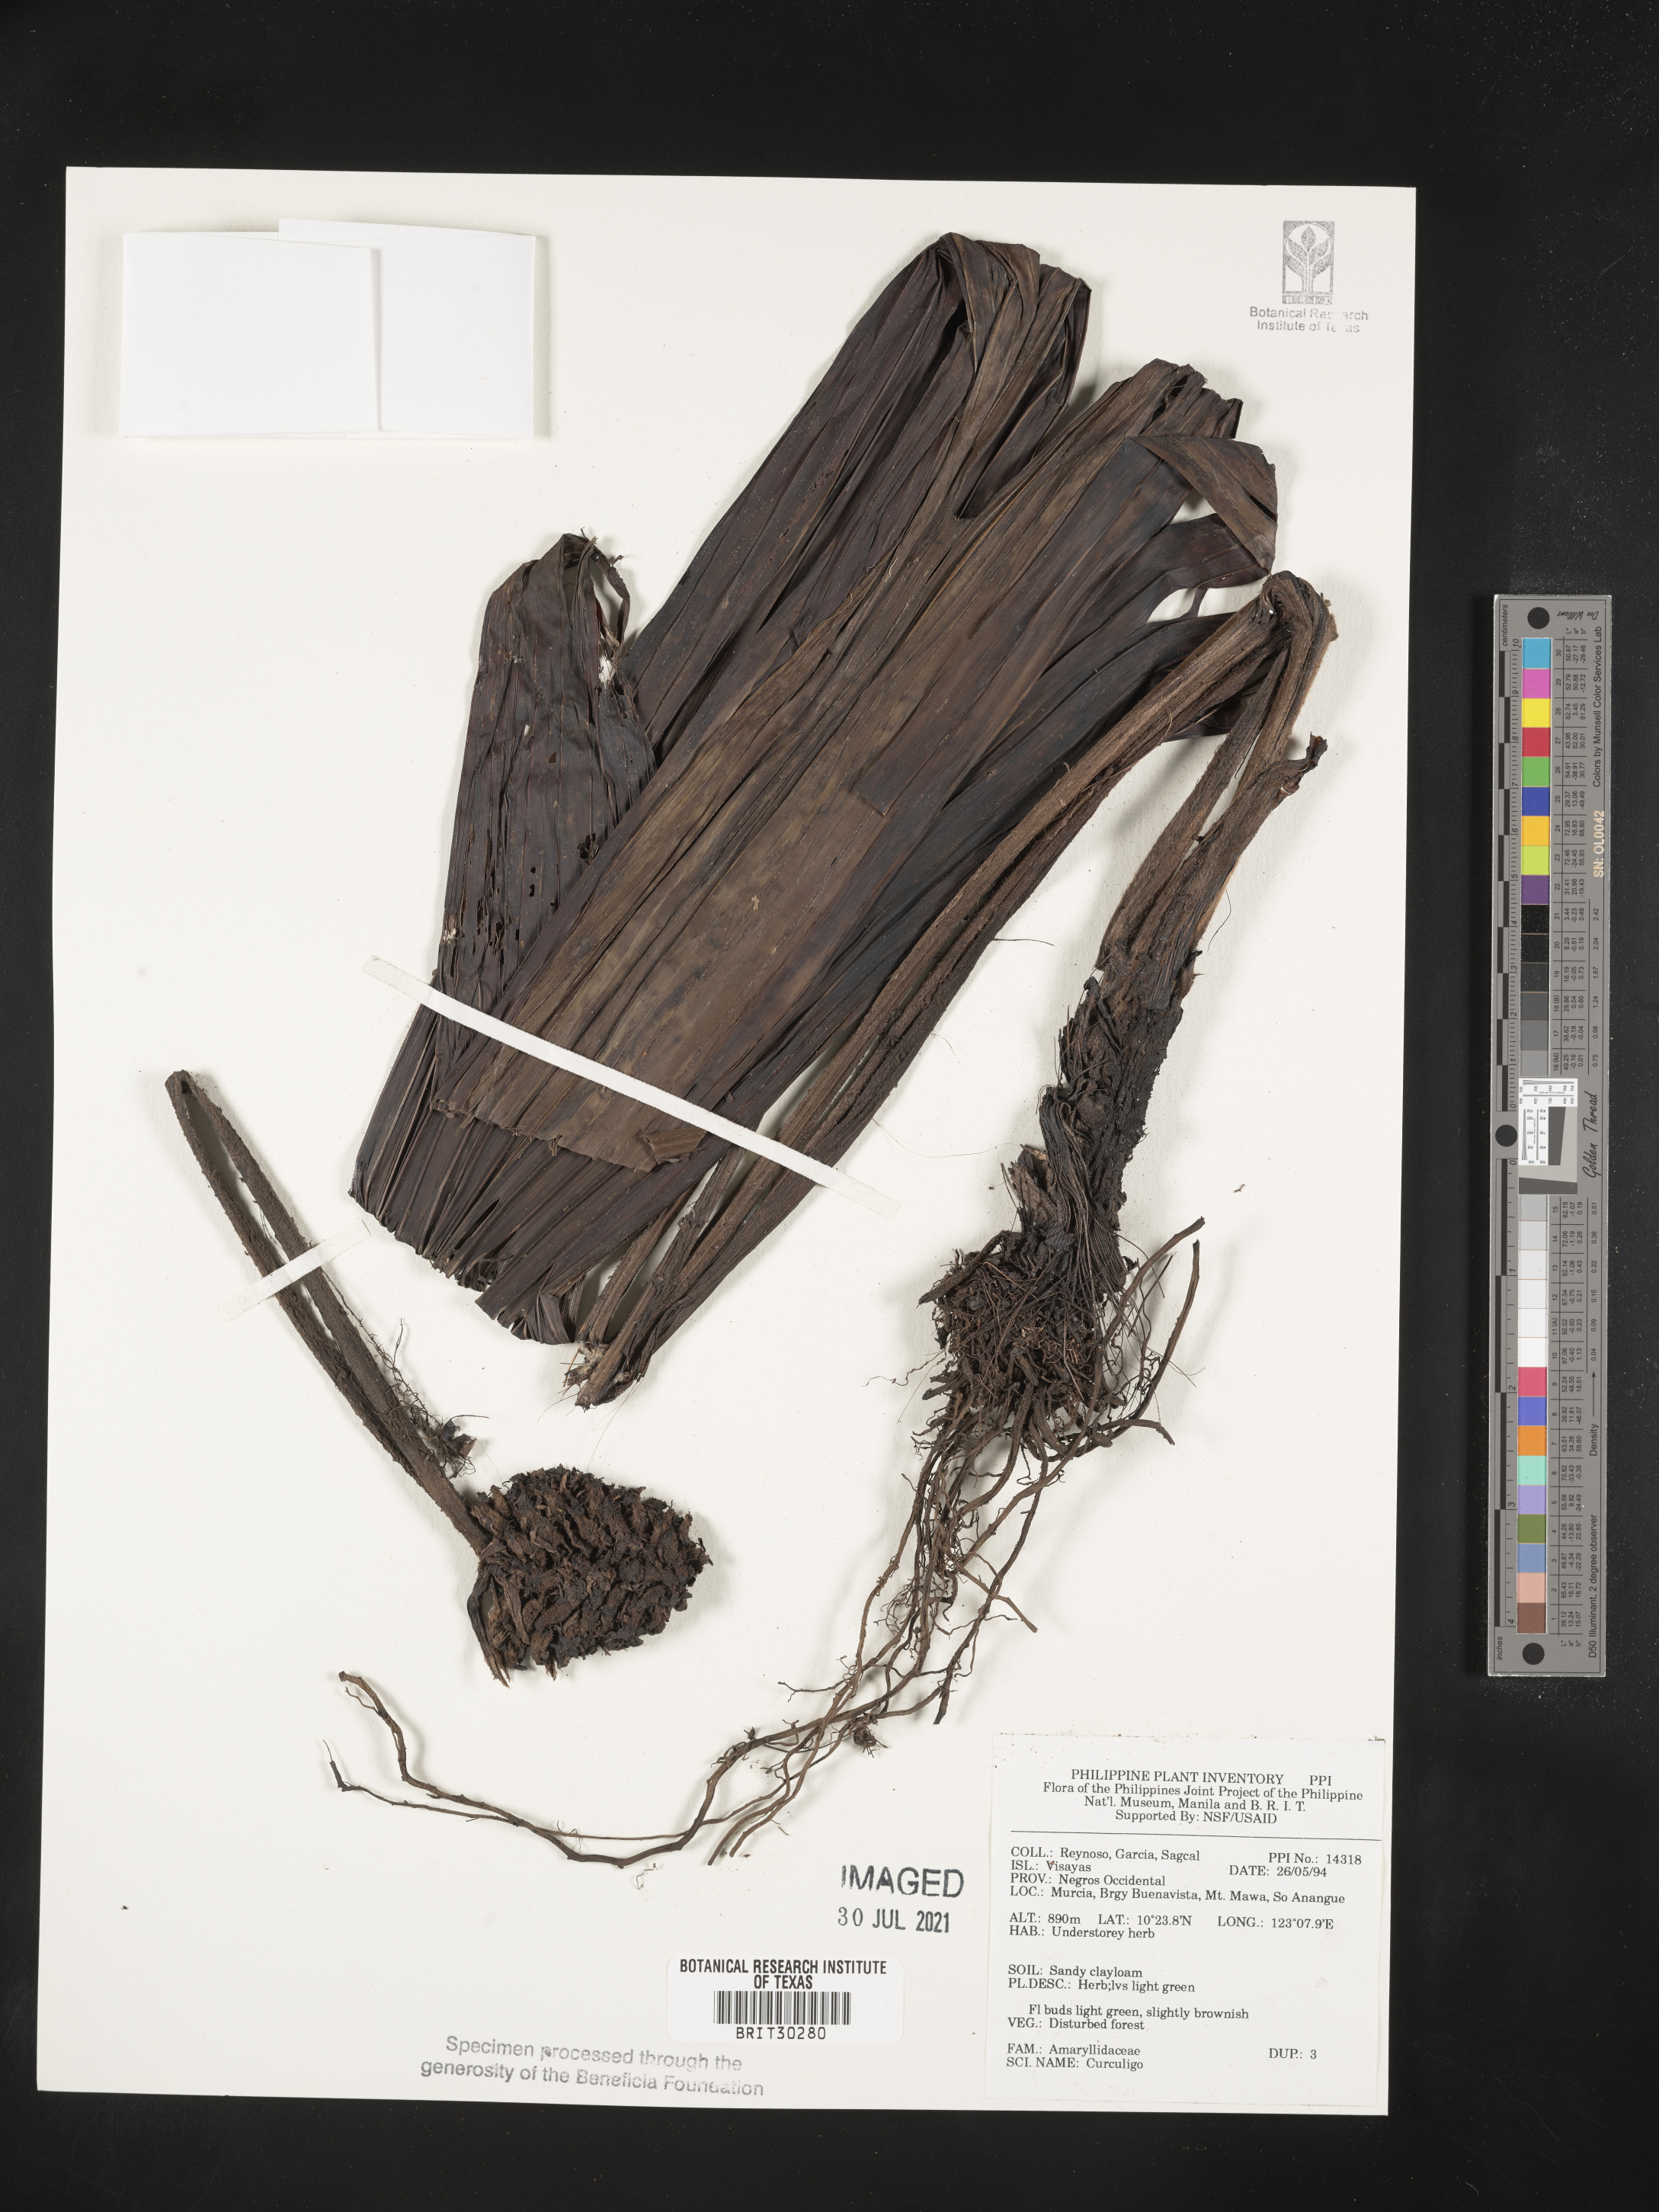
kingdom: Plantae
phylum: Tracheophyta
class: Liliopsida
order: Asparagales
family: Hypoxidaceae
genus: Curculigo
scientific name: Curculigo
